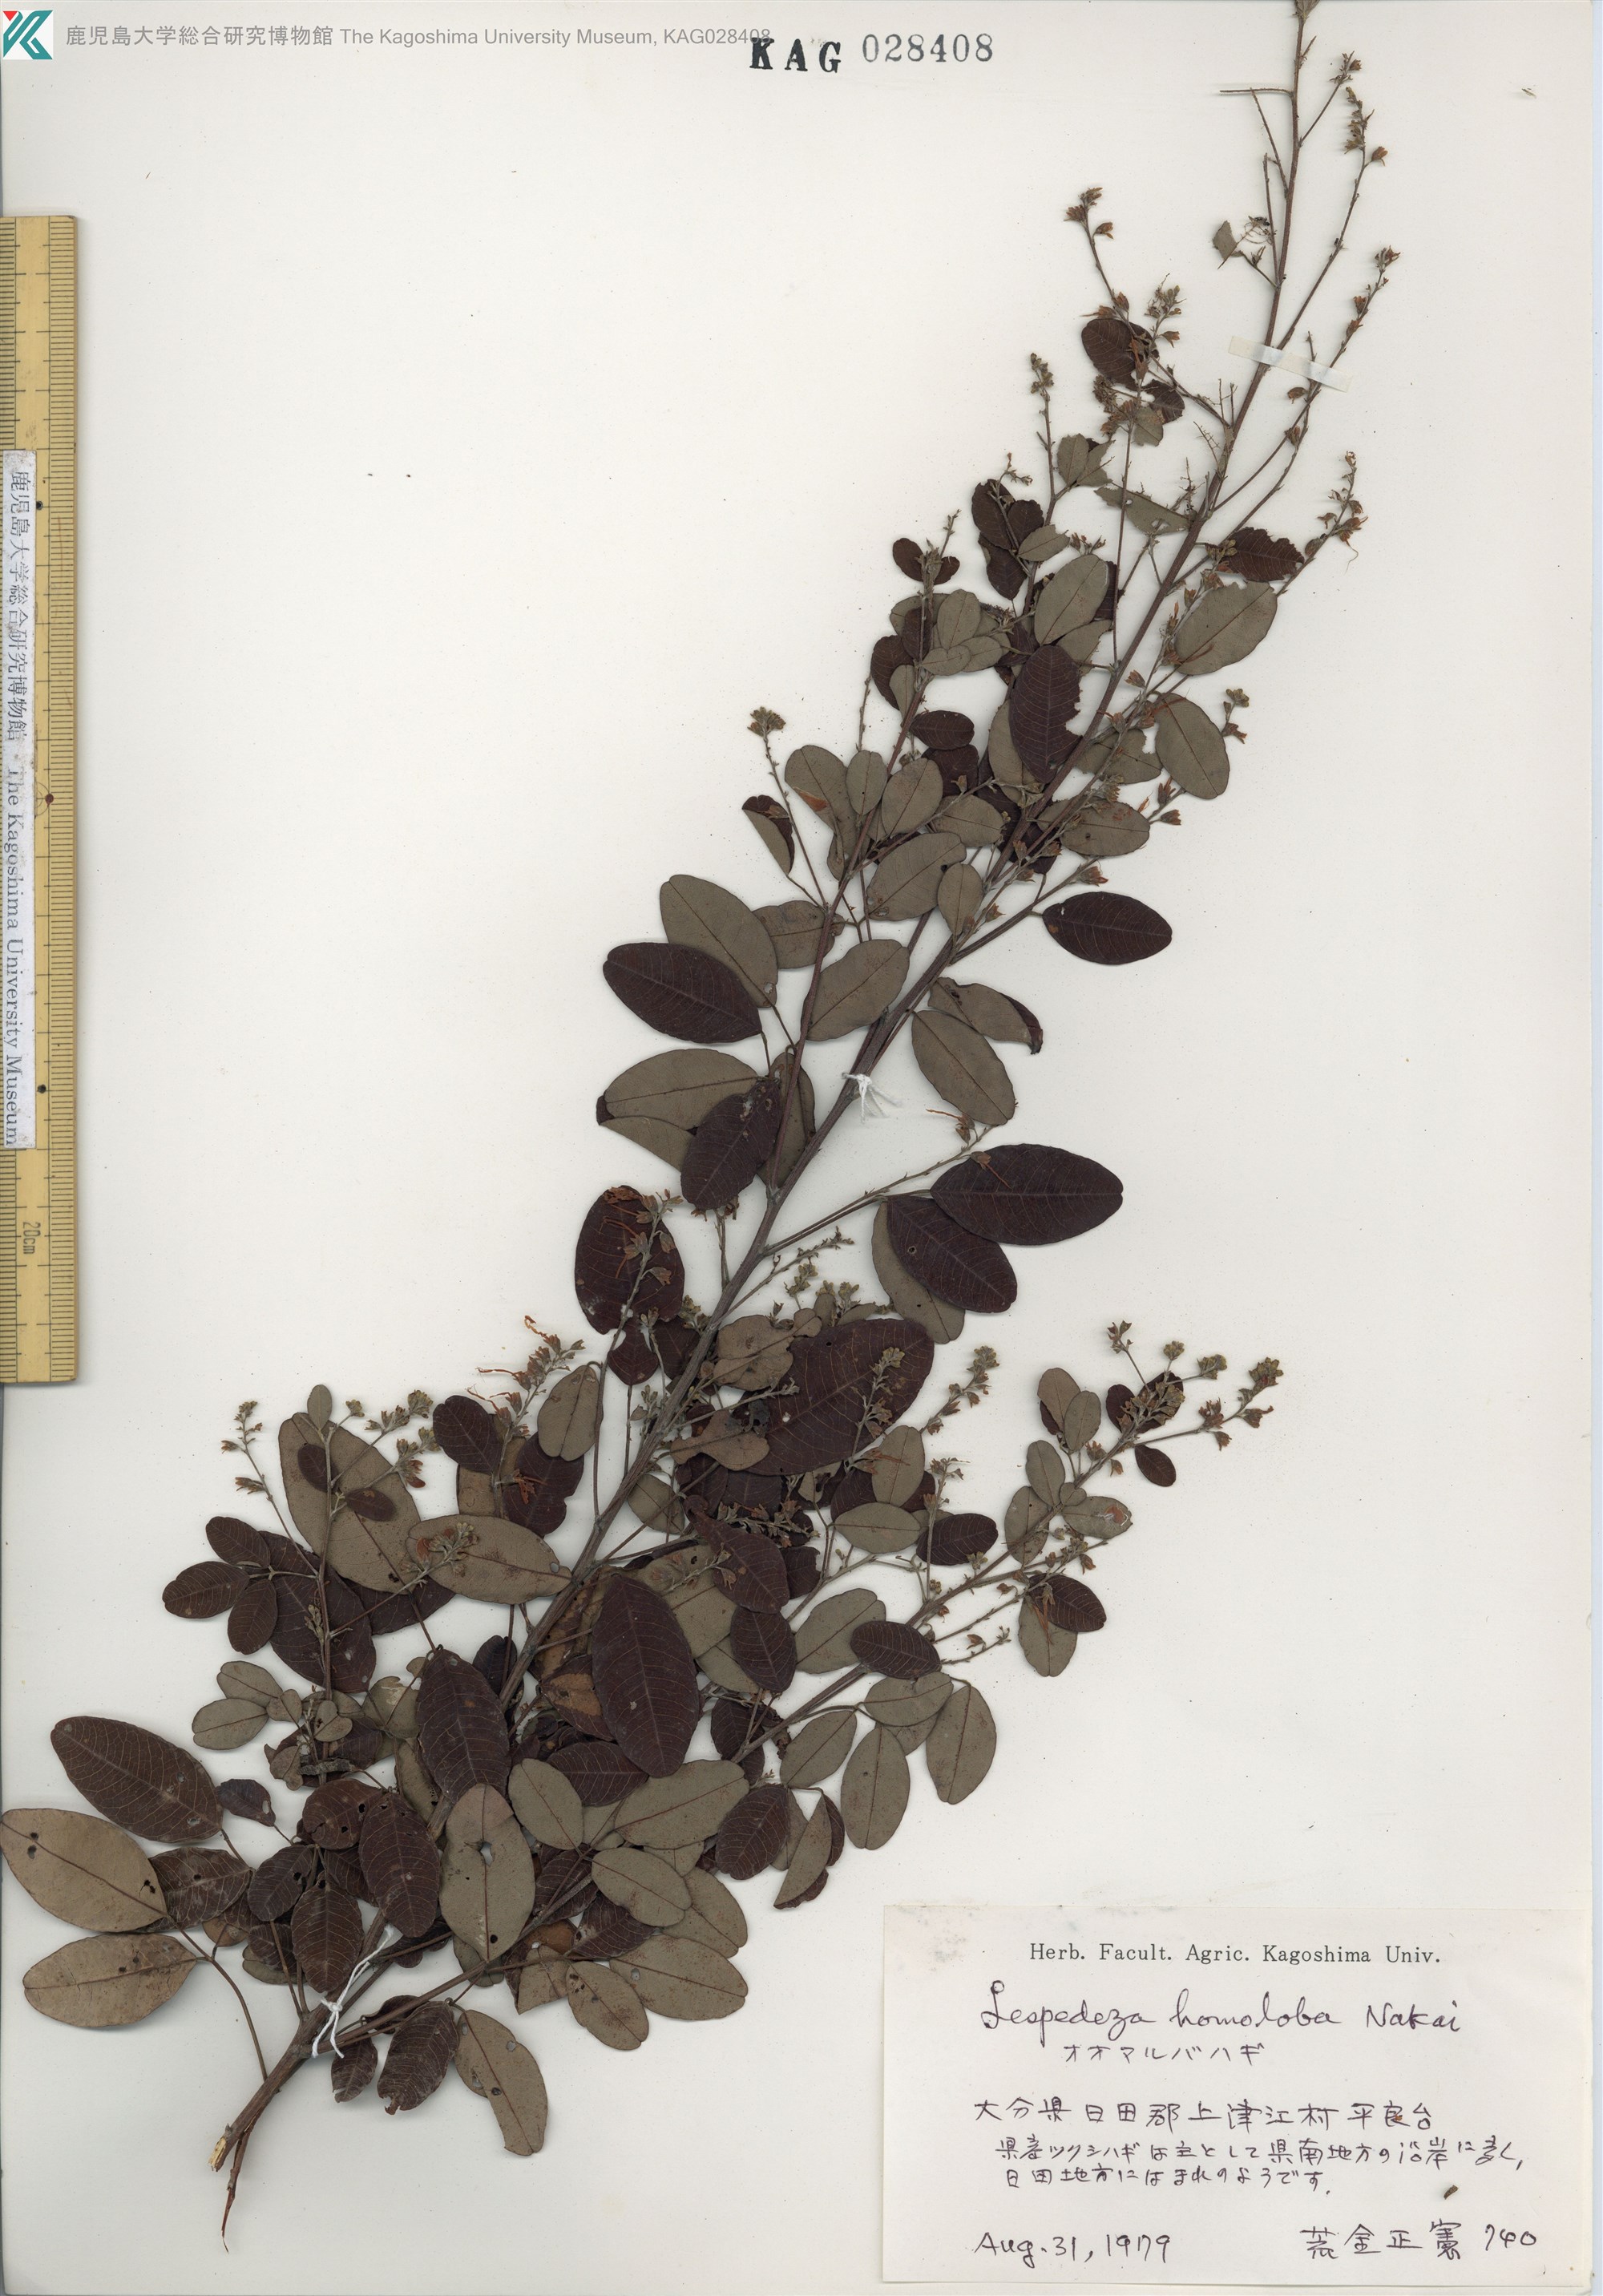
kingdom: Plantae
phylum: Tracheophyta
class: Magnoliopsida
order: Fabales
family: Fabaceae
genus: Lespedeza
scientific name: Lespedeza homoloba
